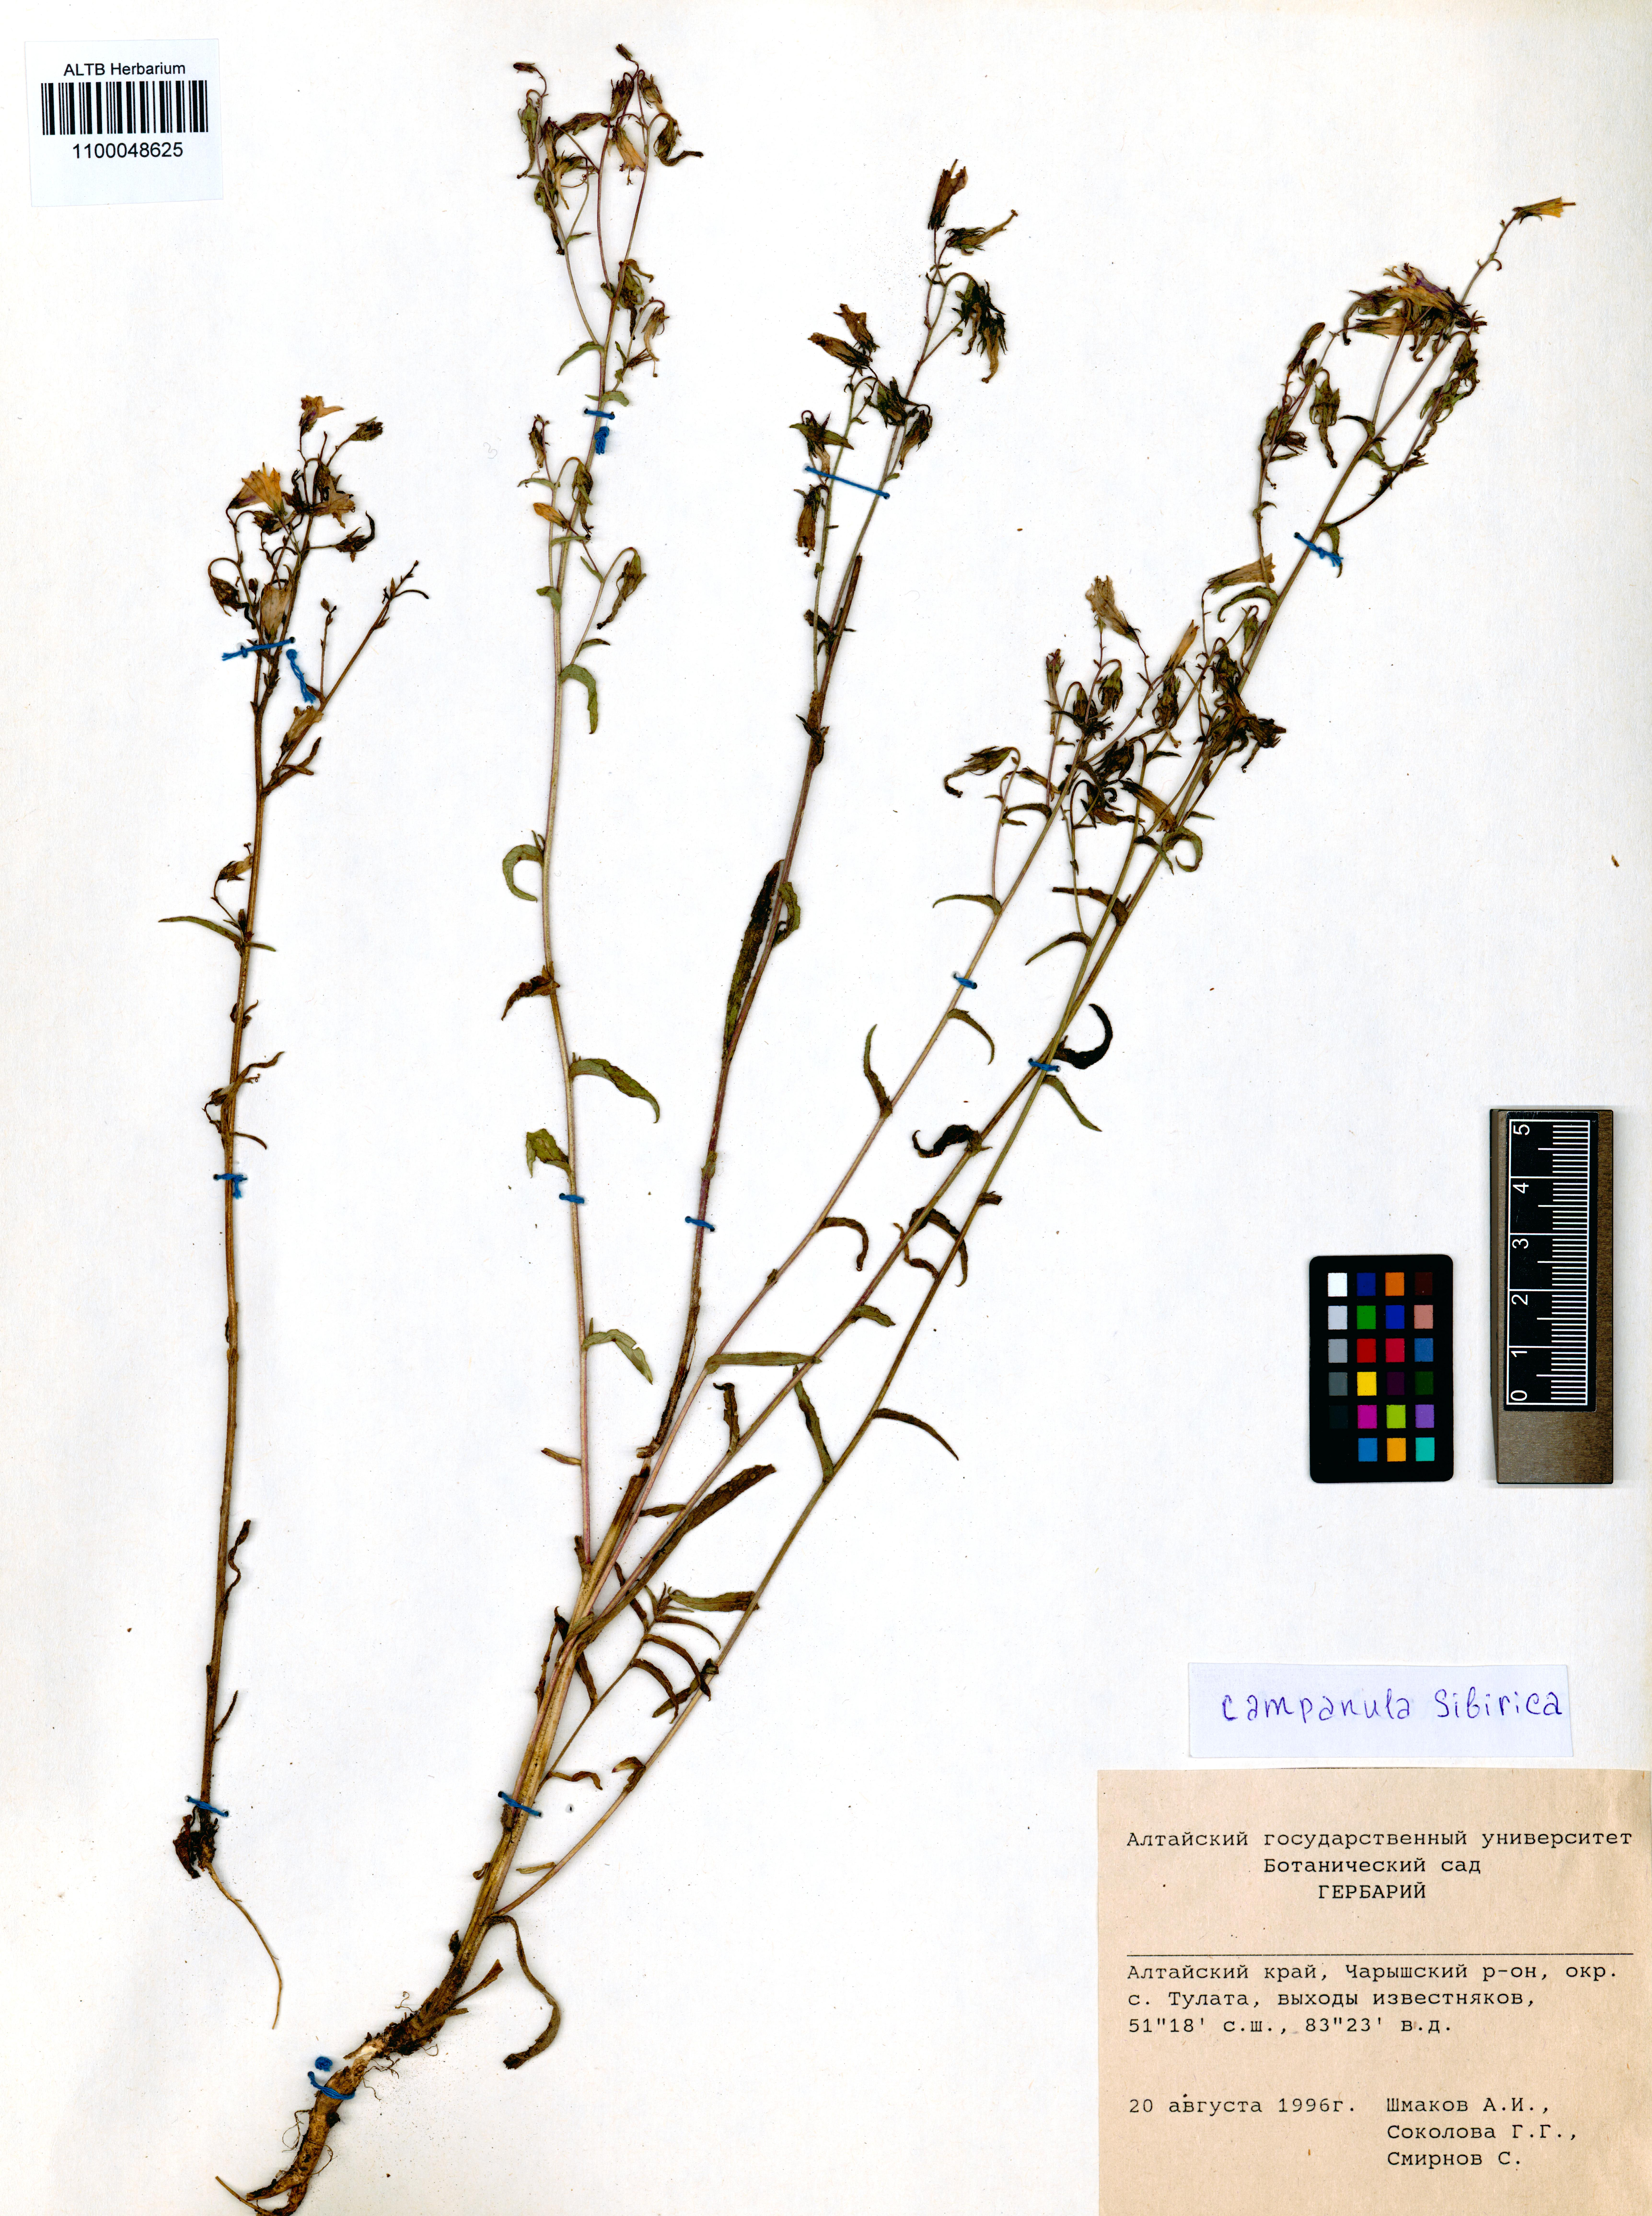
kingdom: Plantae
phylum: Tracheophyta
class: Magnoliopsida
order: Asterales
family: Campanulaceae
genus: Campanula
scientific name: Campanula sibirica
